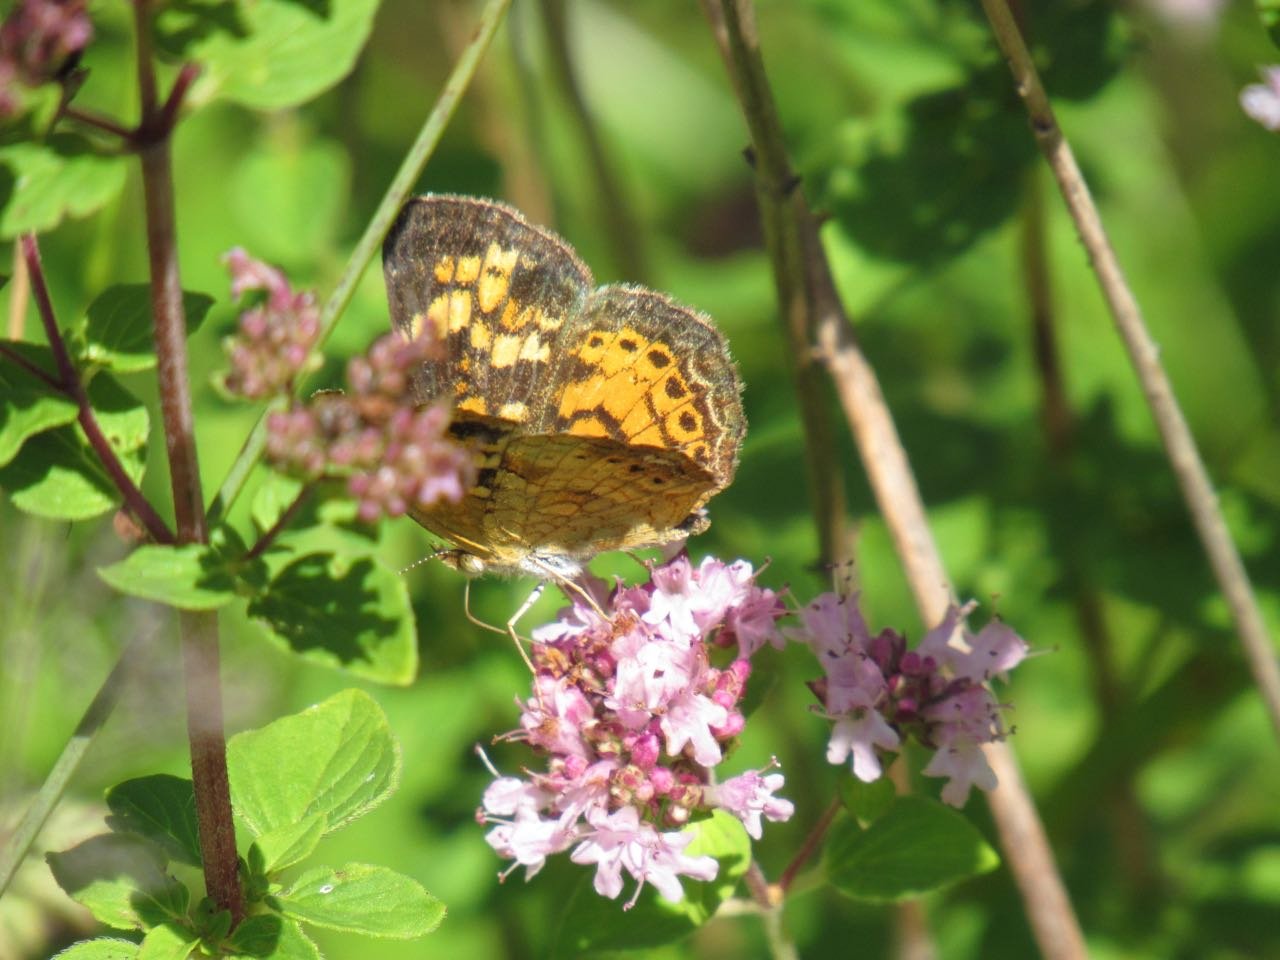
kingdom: Animalia
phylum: Arthropoda
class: Insecta
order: Lepidoptera
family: Nymphalidae
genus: Phyciodes
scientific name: Phyciodes tharos
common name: Pearl Crescent
